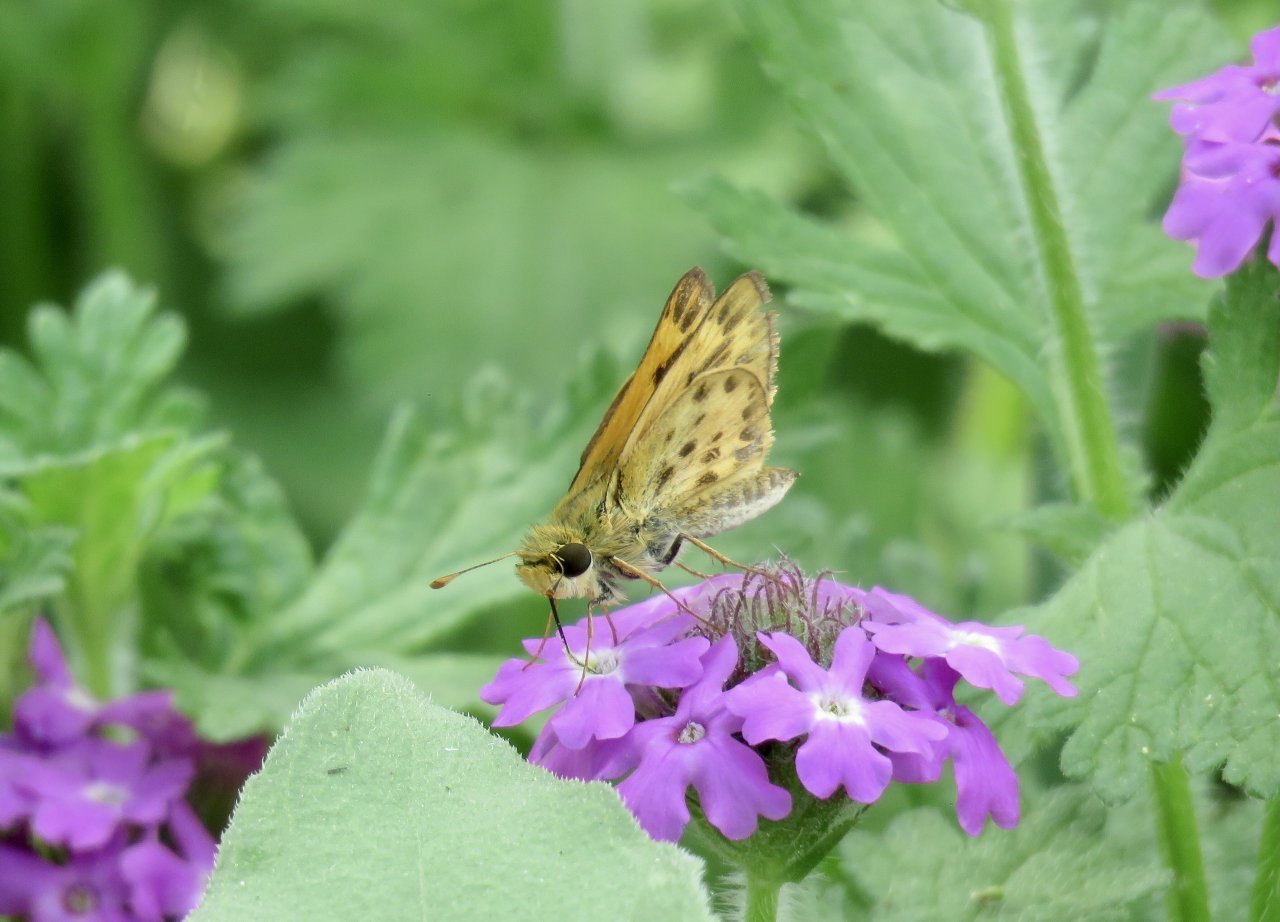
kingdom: Animalia
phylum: Arthropoda
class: Insecta
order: Lepidoptera
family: Hesperiidae
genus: Hylephila
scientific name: Hylephila phyleus
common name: Fiery Skipper
